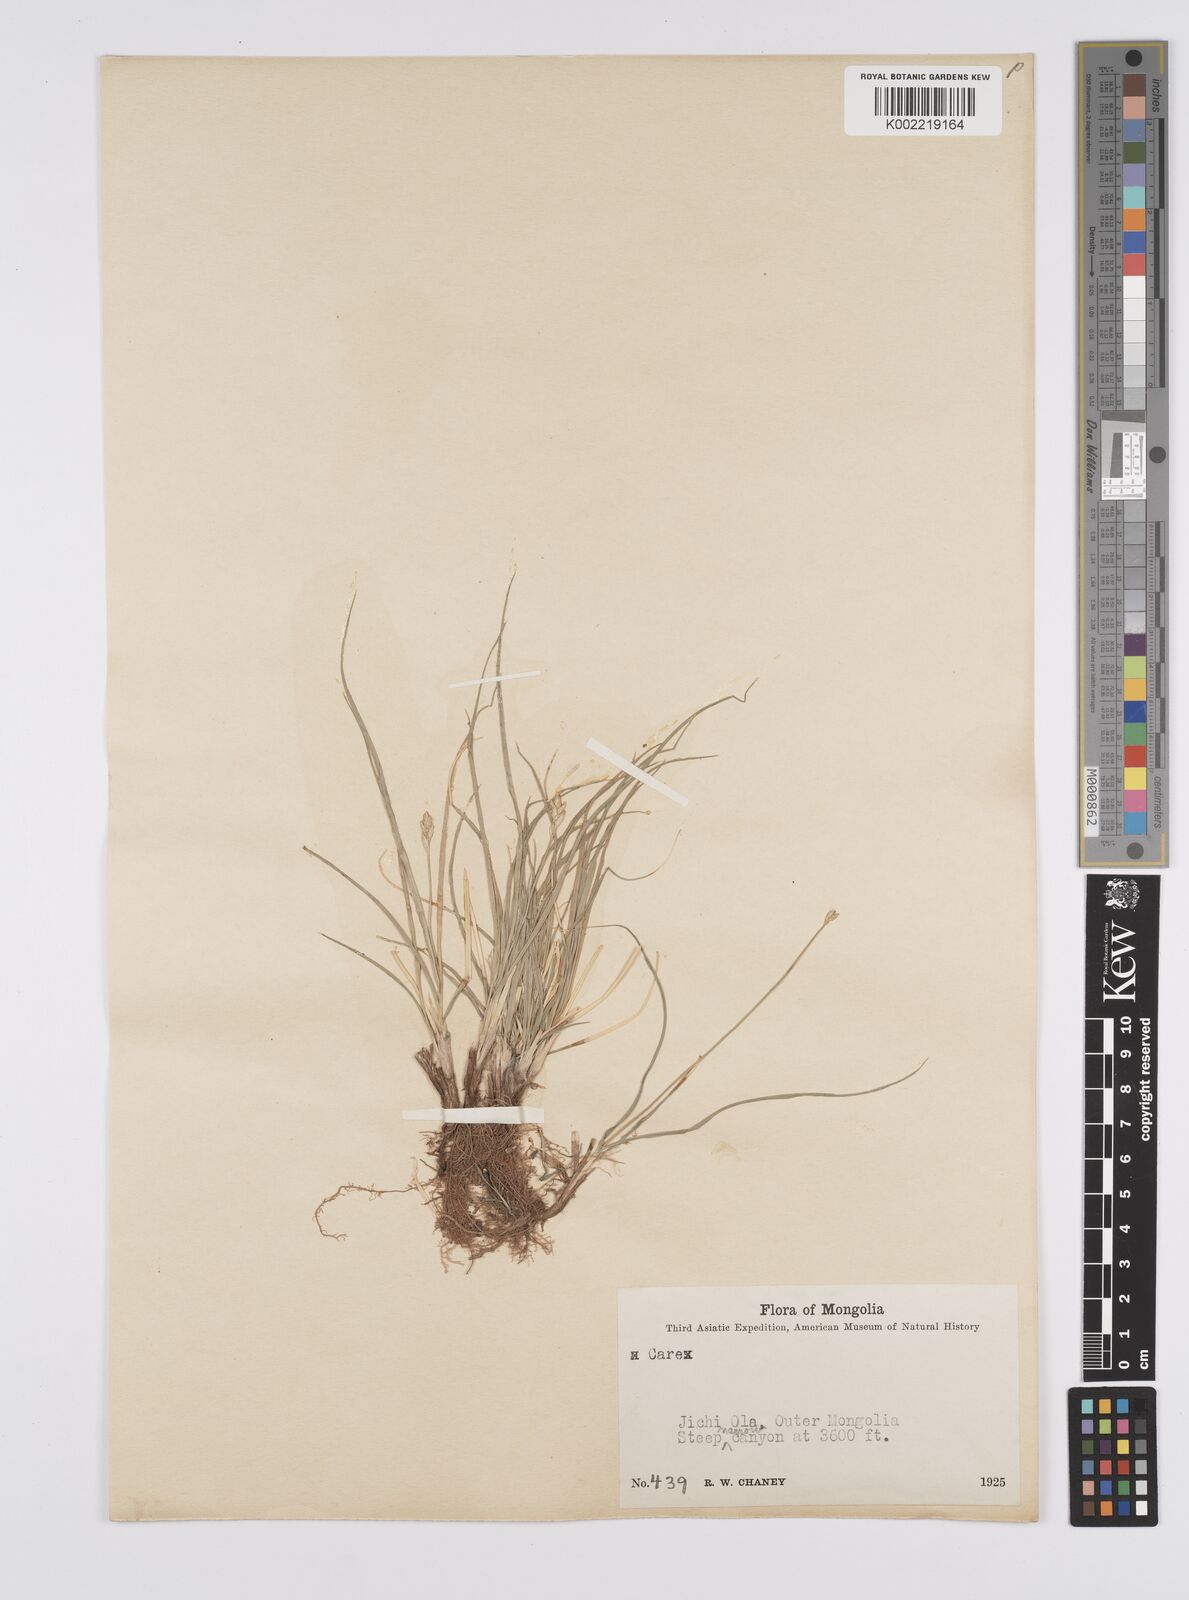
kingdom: Plantae
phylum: Tracheophyta
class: Liliopsida
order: Poales
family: Cyperaceae
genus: Carex
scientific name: Carex
